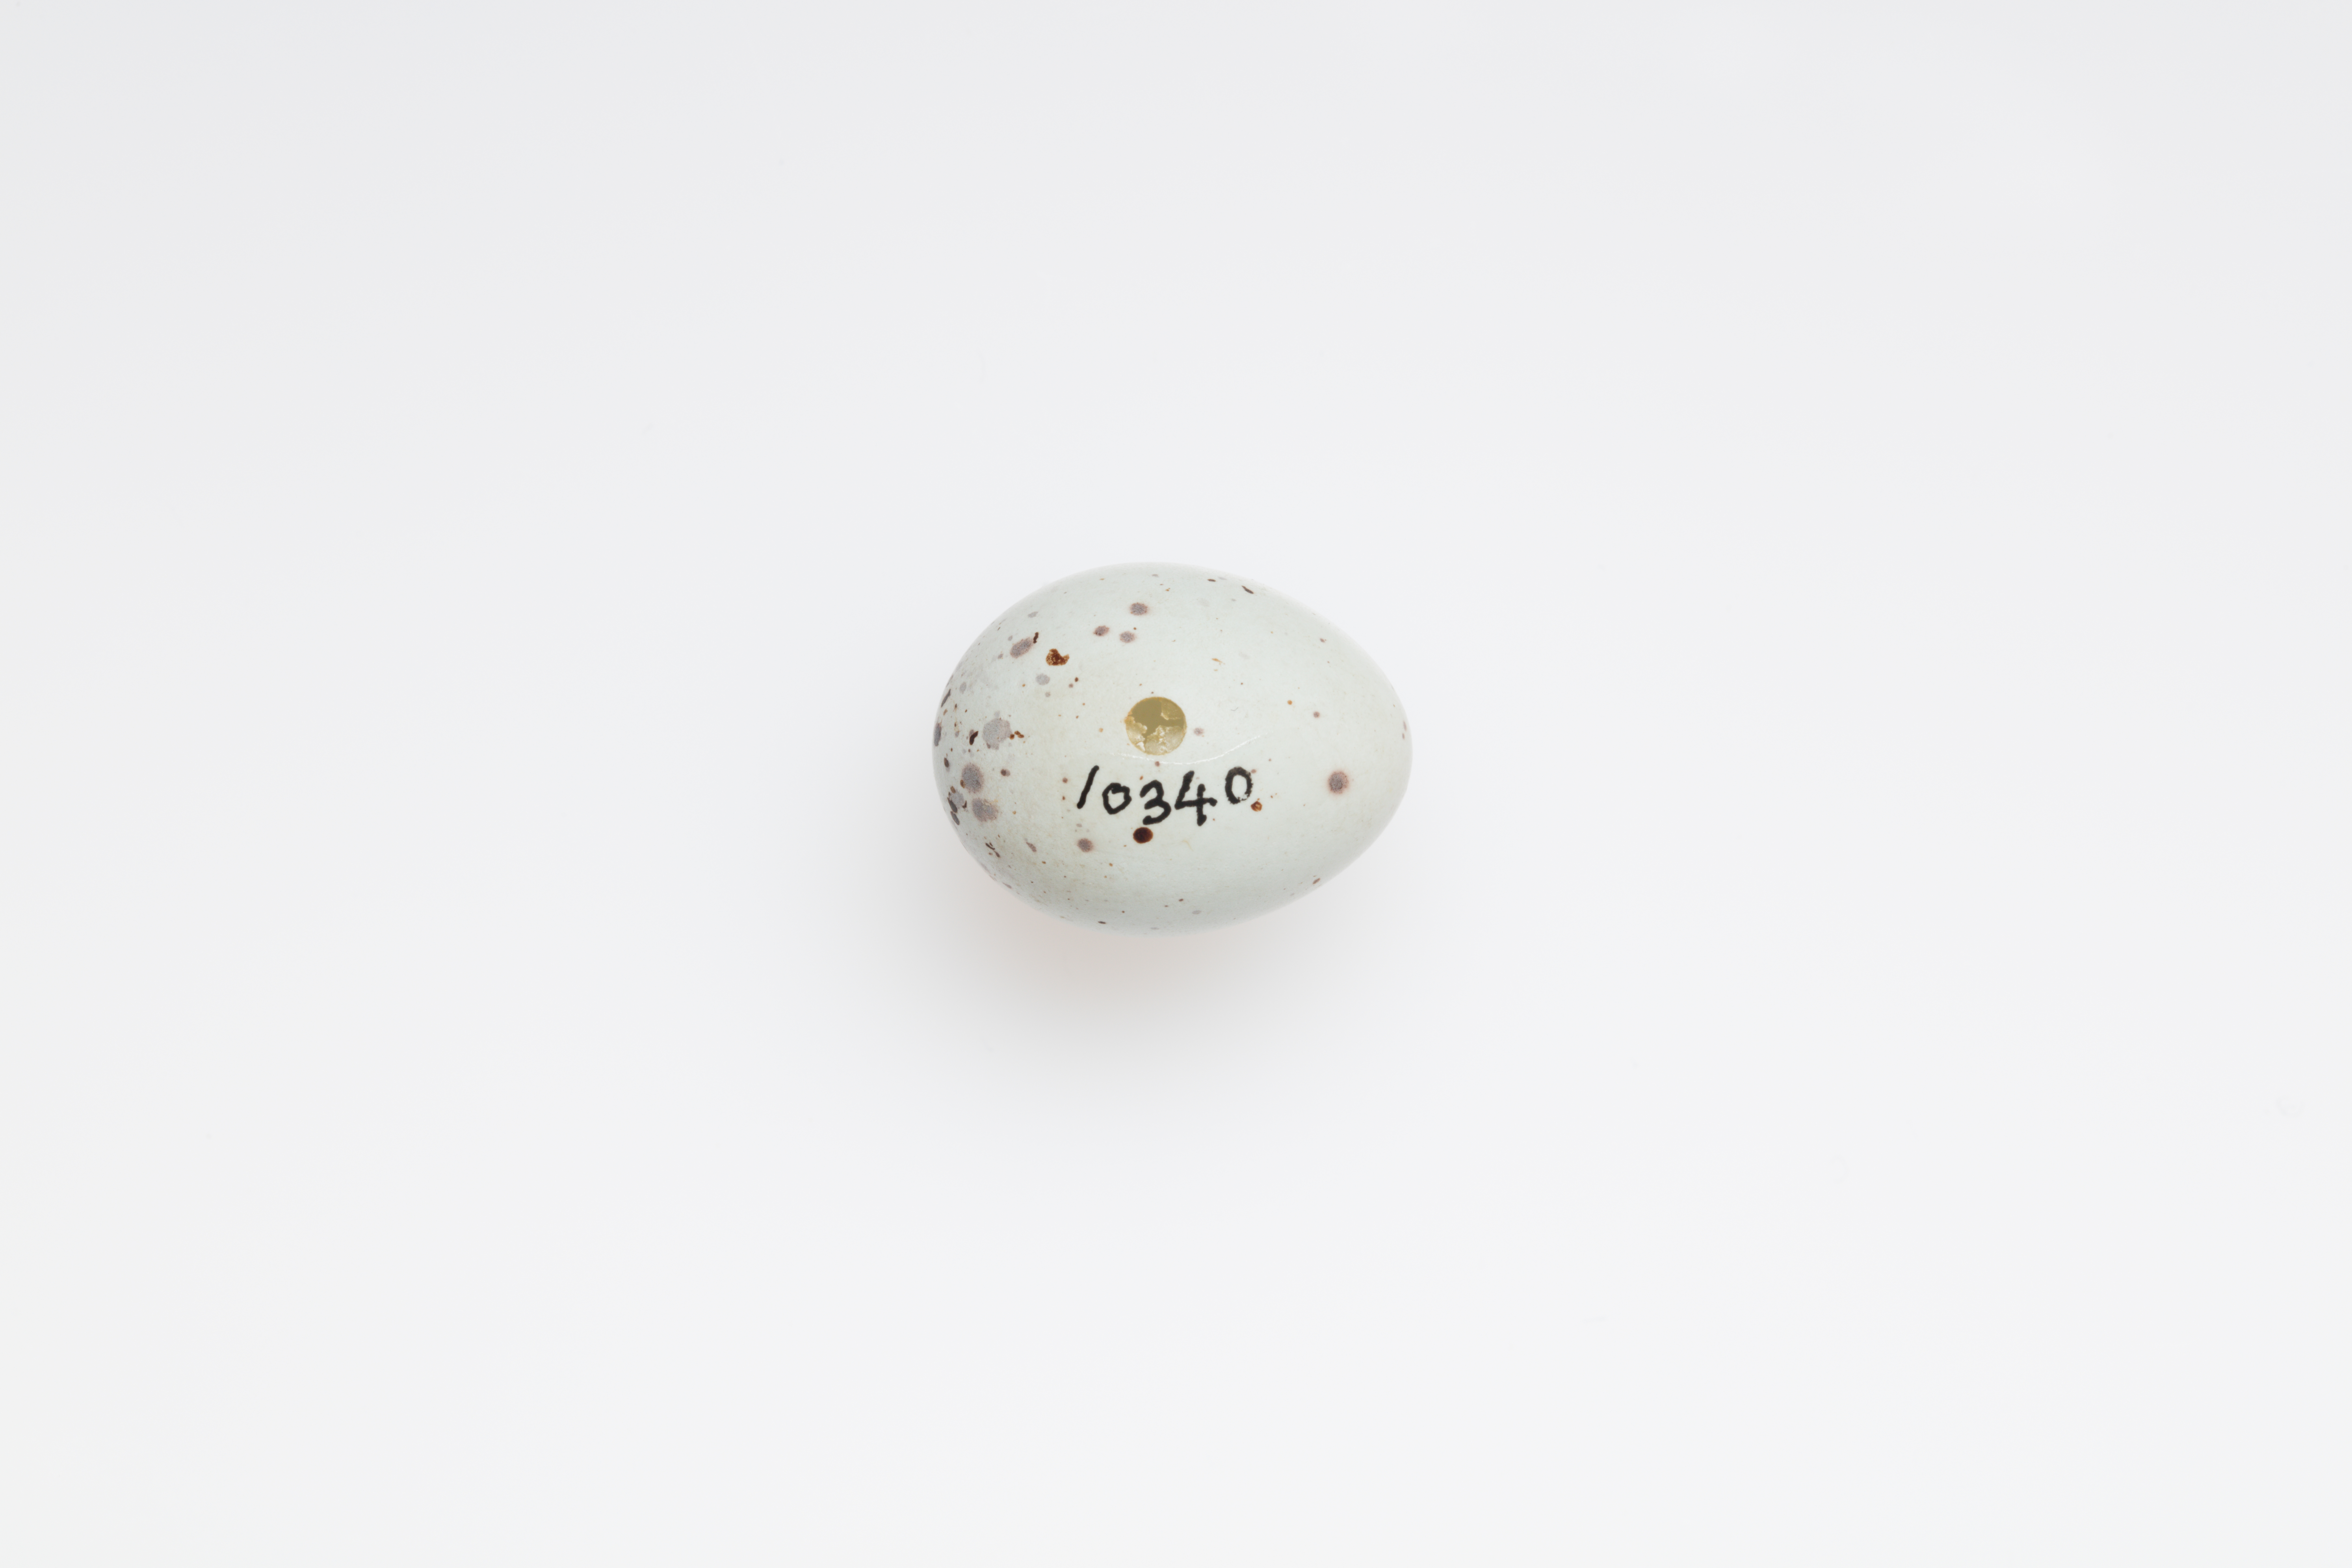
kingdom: Animalia
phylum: Chordata
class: Aves
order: Passeriformes
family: Fringillidae
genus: Pyrrhula
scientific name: Pyrrhula pyrrhula
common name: Eurasian bullfinch
